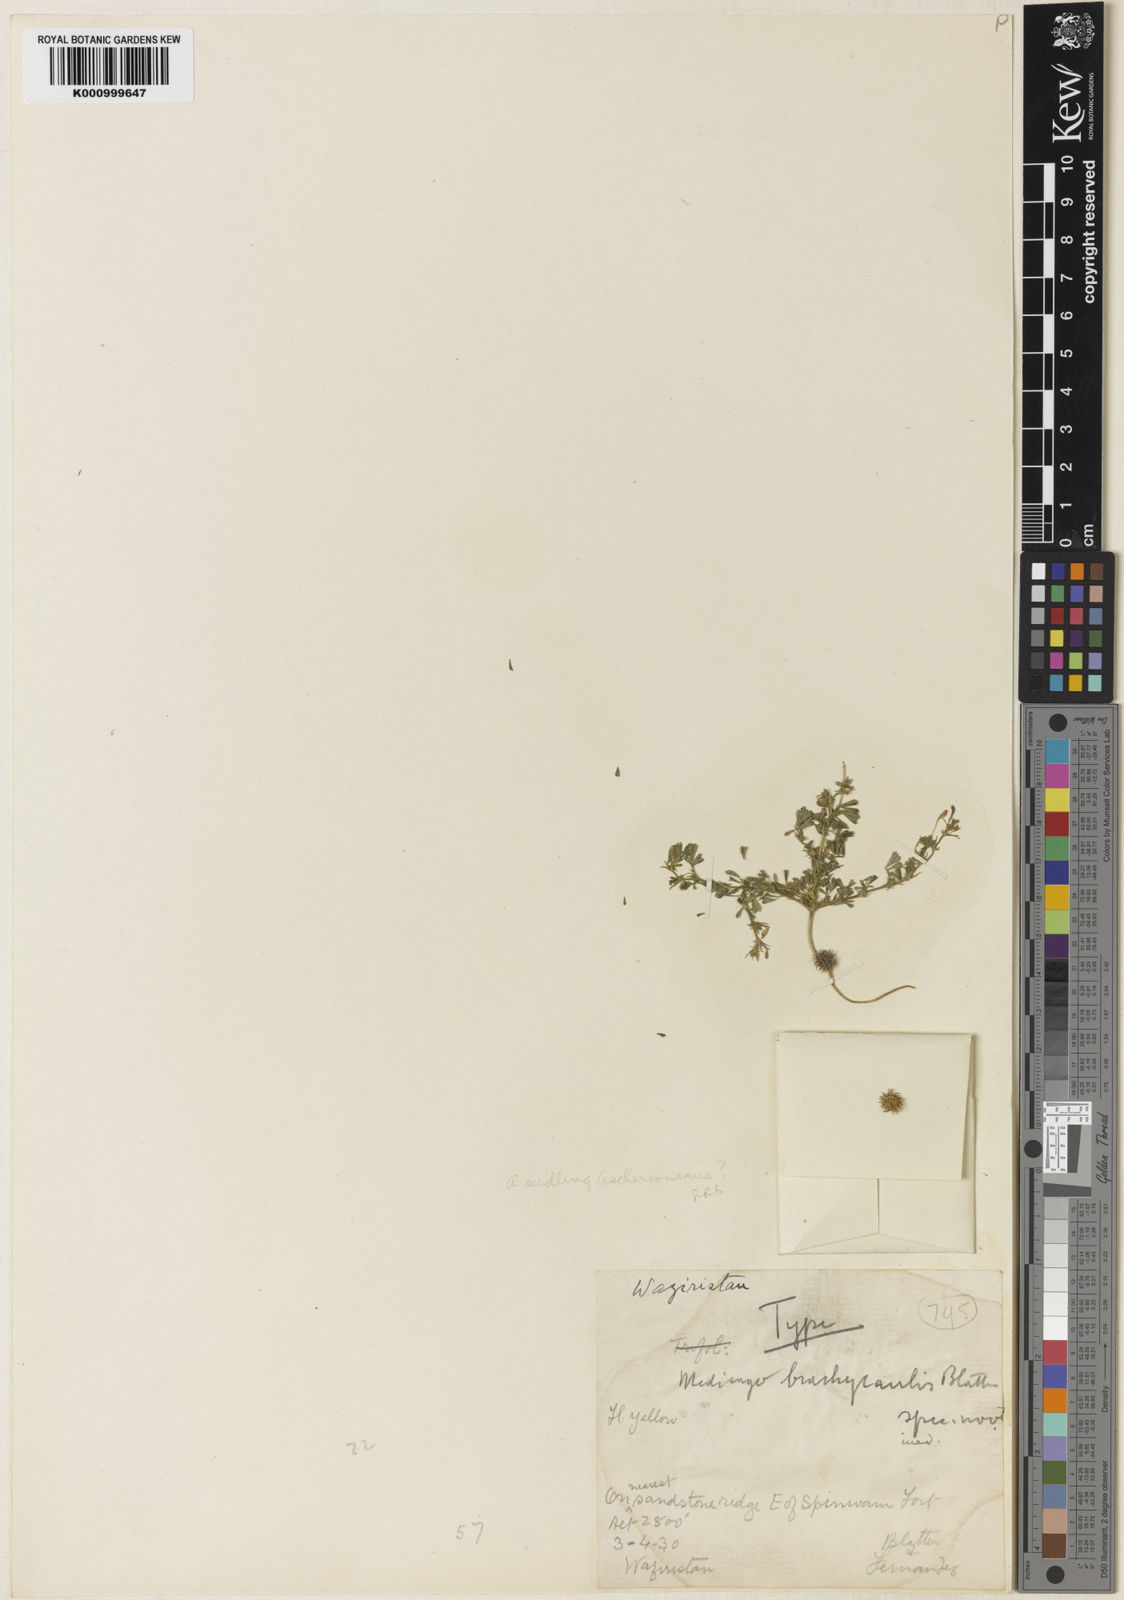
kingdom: Plantae
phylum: Tracheophyta
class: Magnoliopsida
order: Fabales
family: Fabaceae
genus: Medicago
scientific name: Medicago laciniata
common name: Tattered medick
